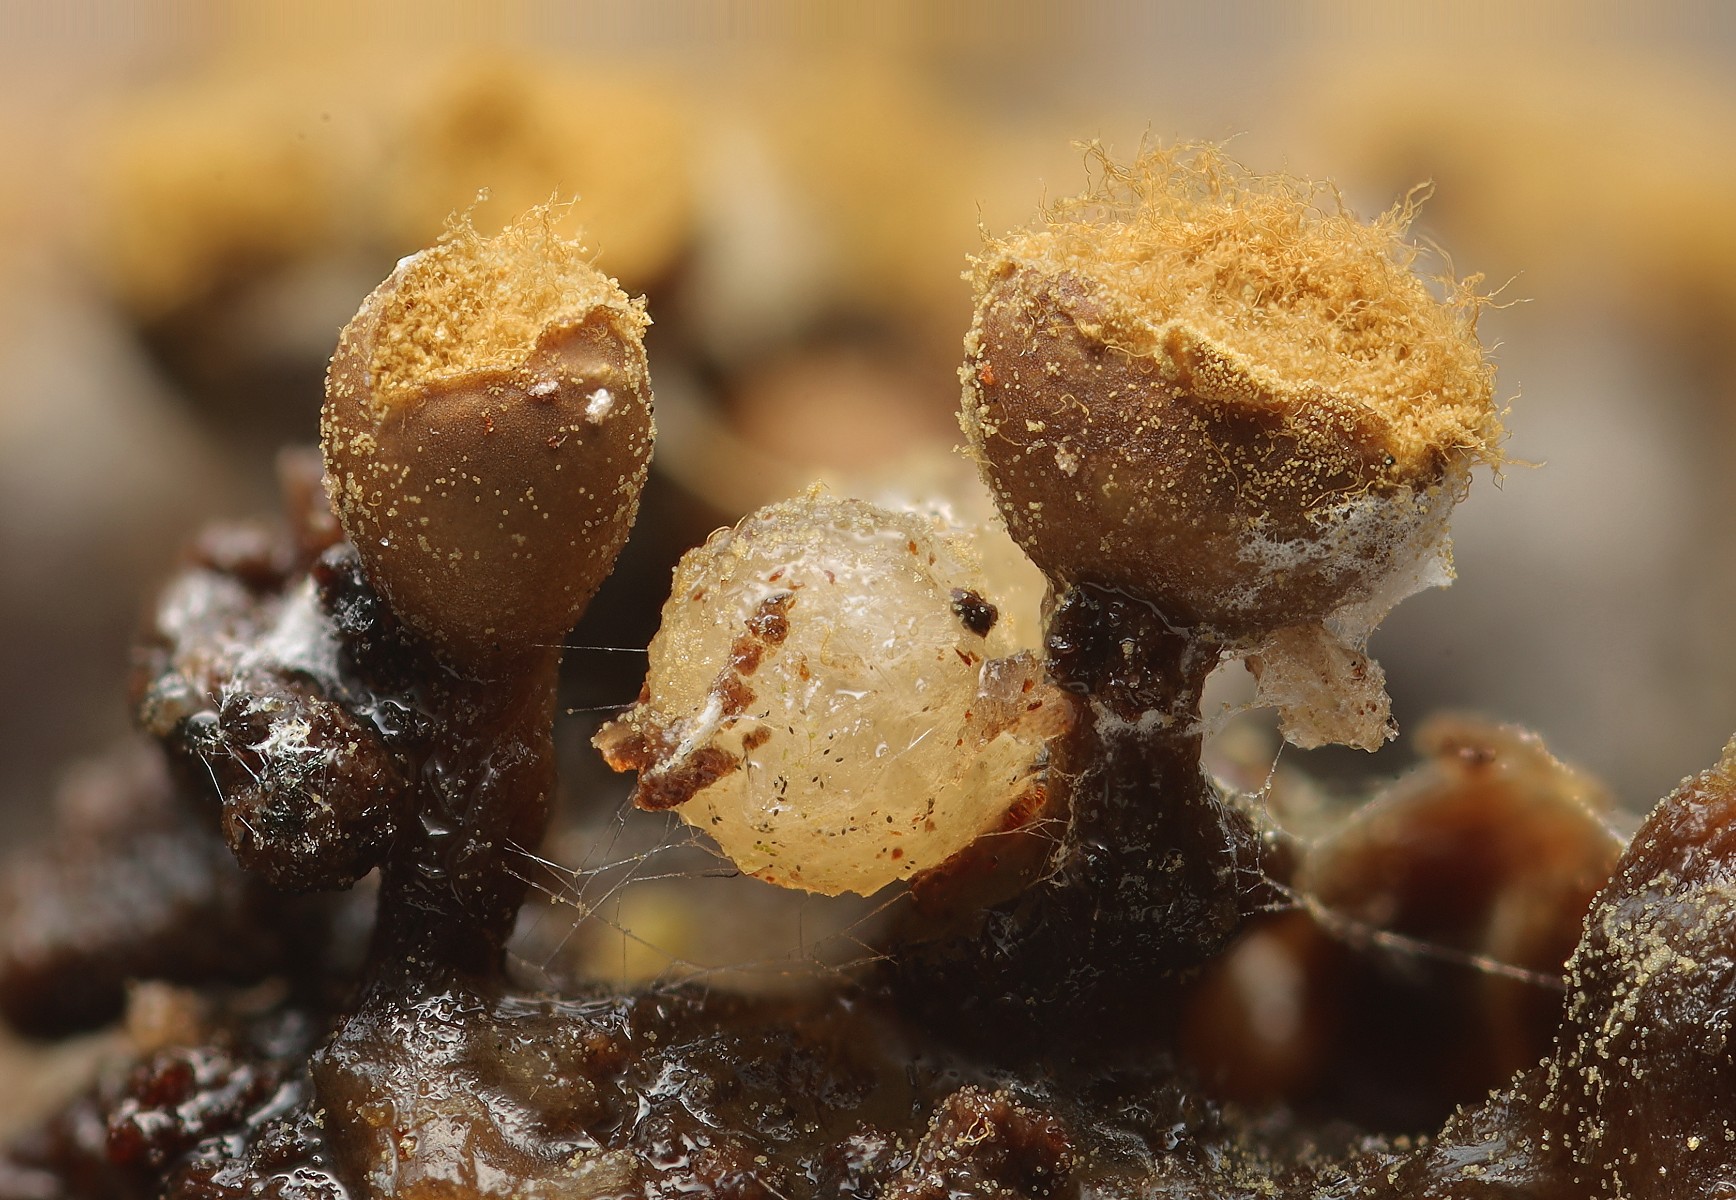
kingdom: Protozoa
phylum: Mycetozoa
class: Myxomycetes
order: Trichiales
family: Trichiaceae
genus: Trichia
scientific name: Trichia ambigua
